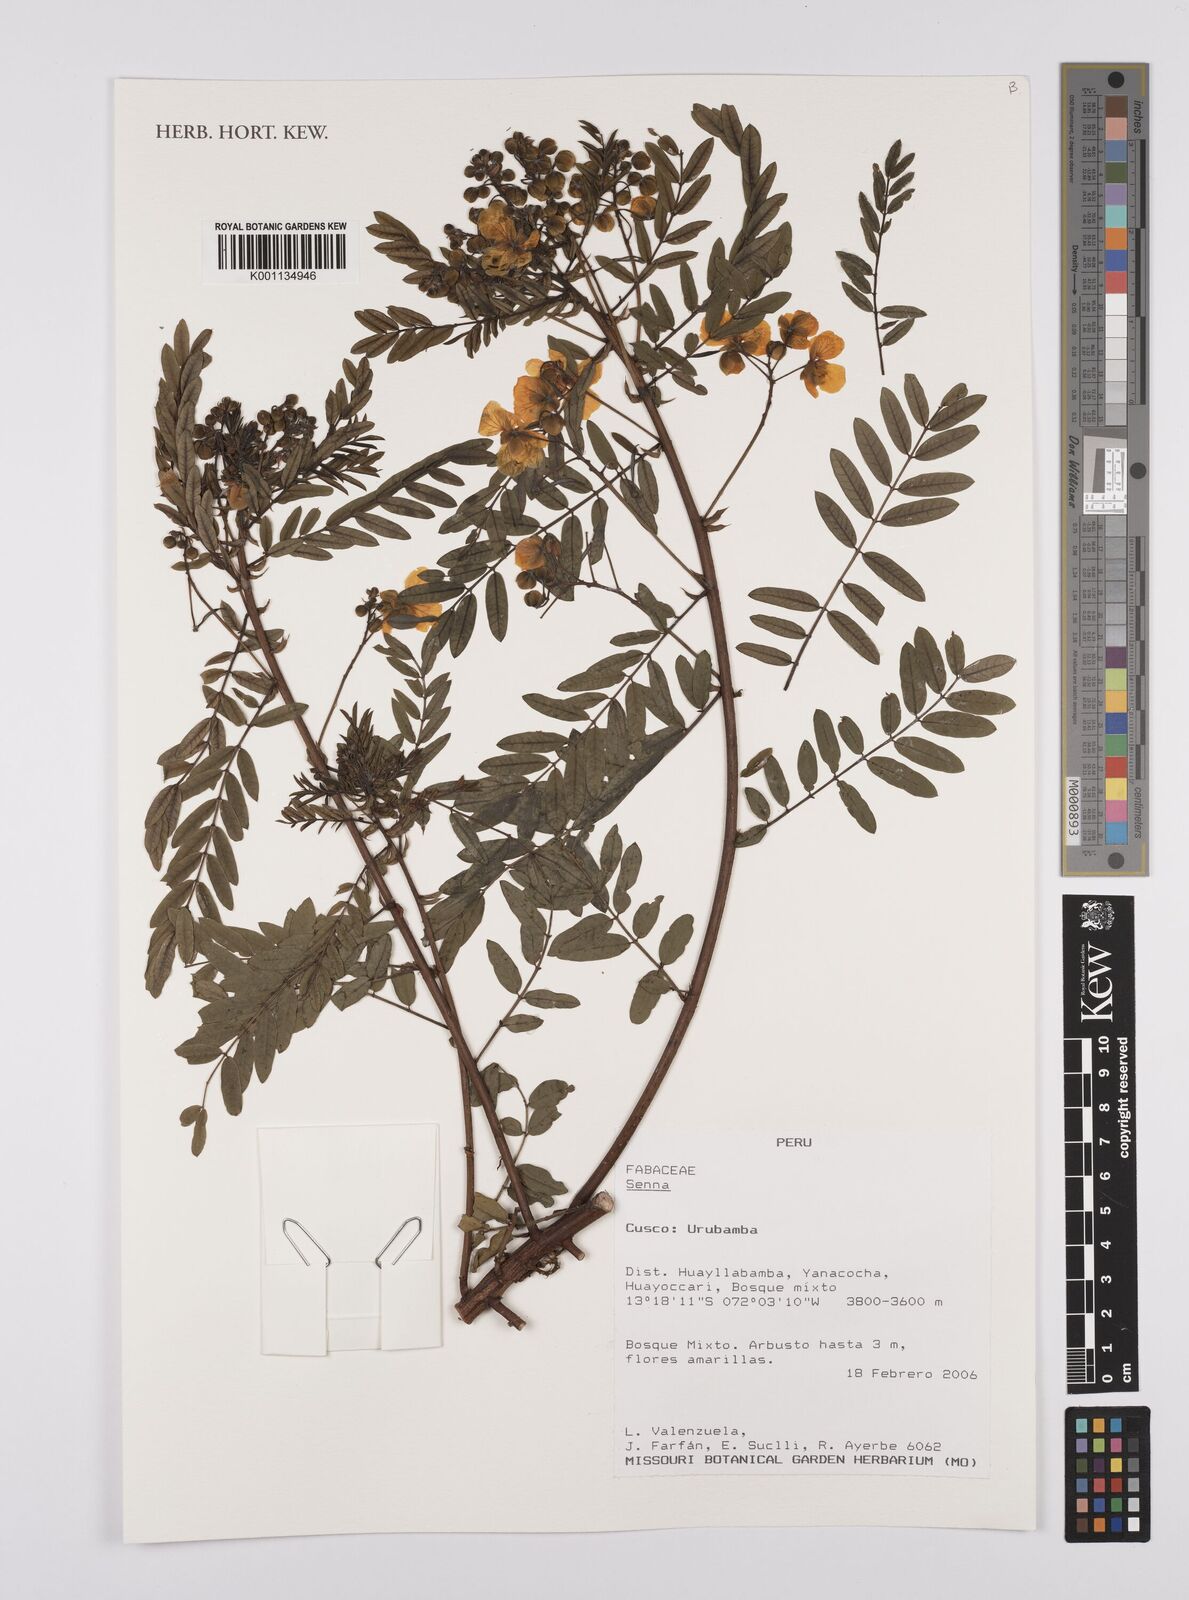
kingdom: Plantae
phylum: Tracheophyta
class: Magnoliopsida
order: Fabales
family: Fabaceae
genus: Senna
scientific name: Senna
